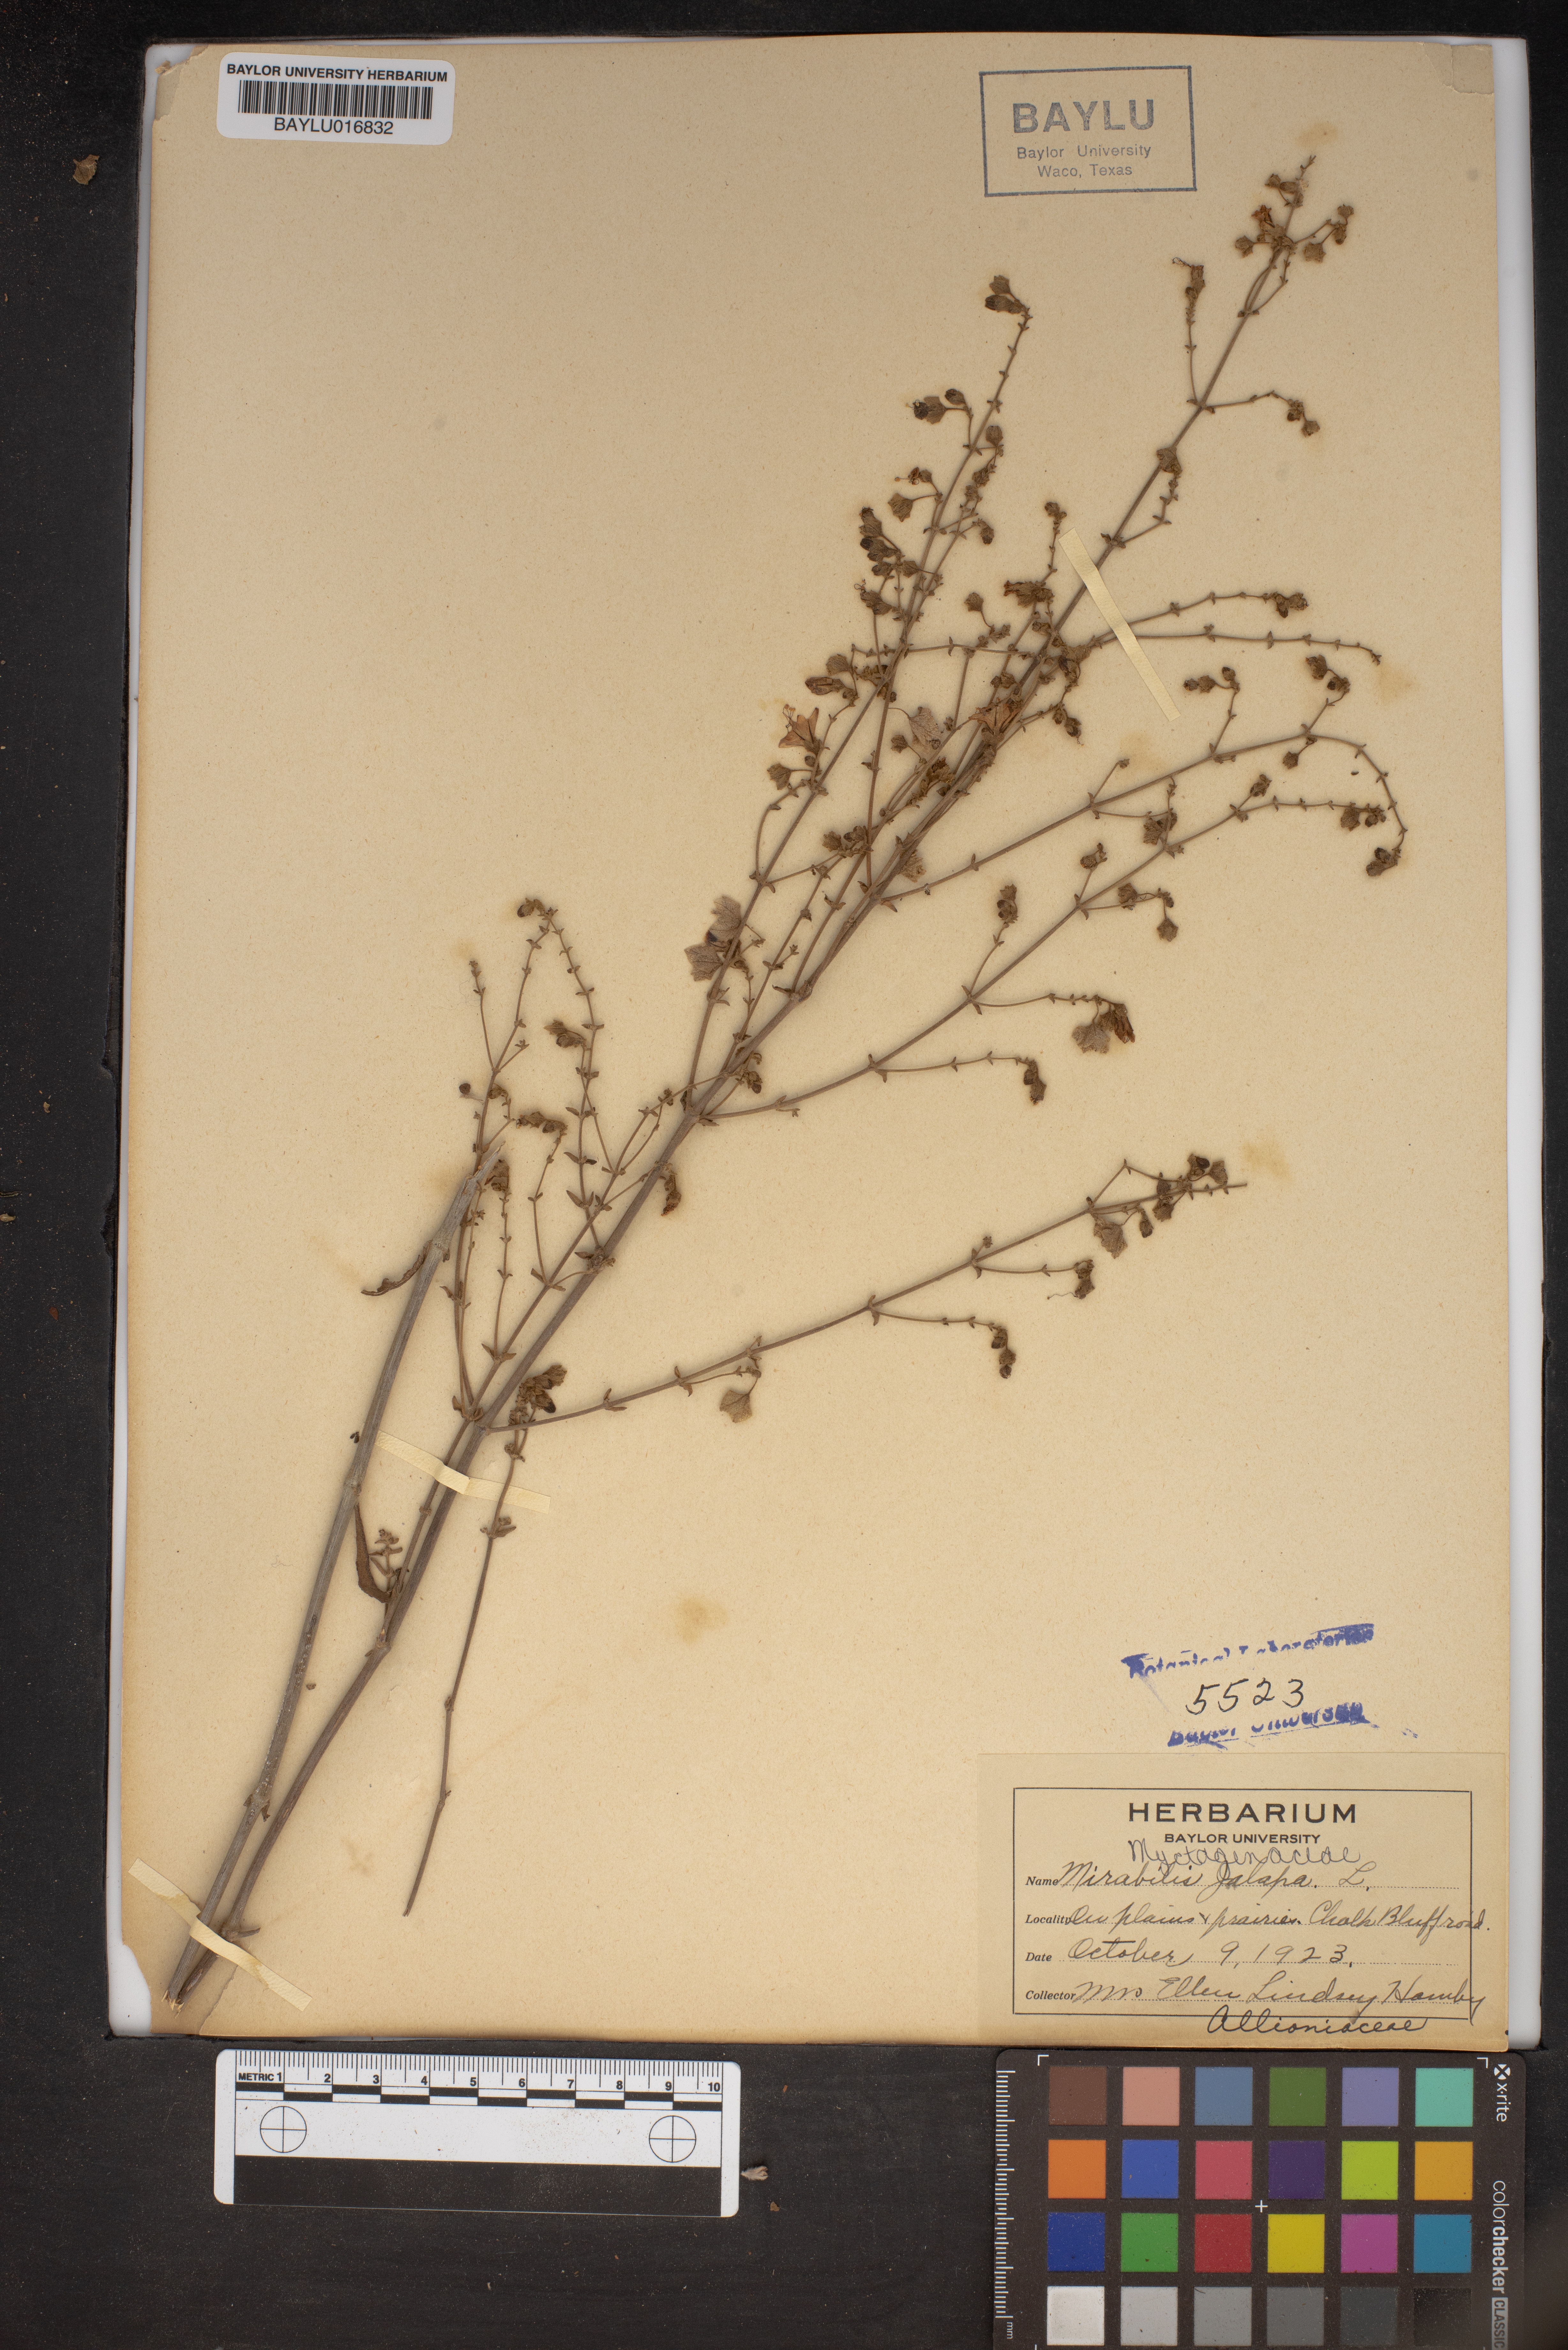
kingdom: Plantae
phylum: Tracheophyta
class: Magnoliopsida
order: Caryophyllales
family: Nyctaginaceae
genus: Mirabilis
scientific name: Mirabilis jalapa
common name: Marvel-of-peru
